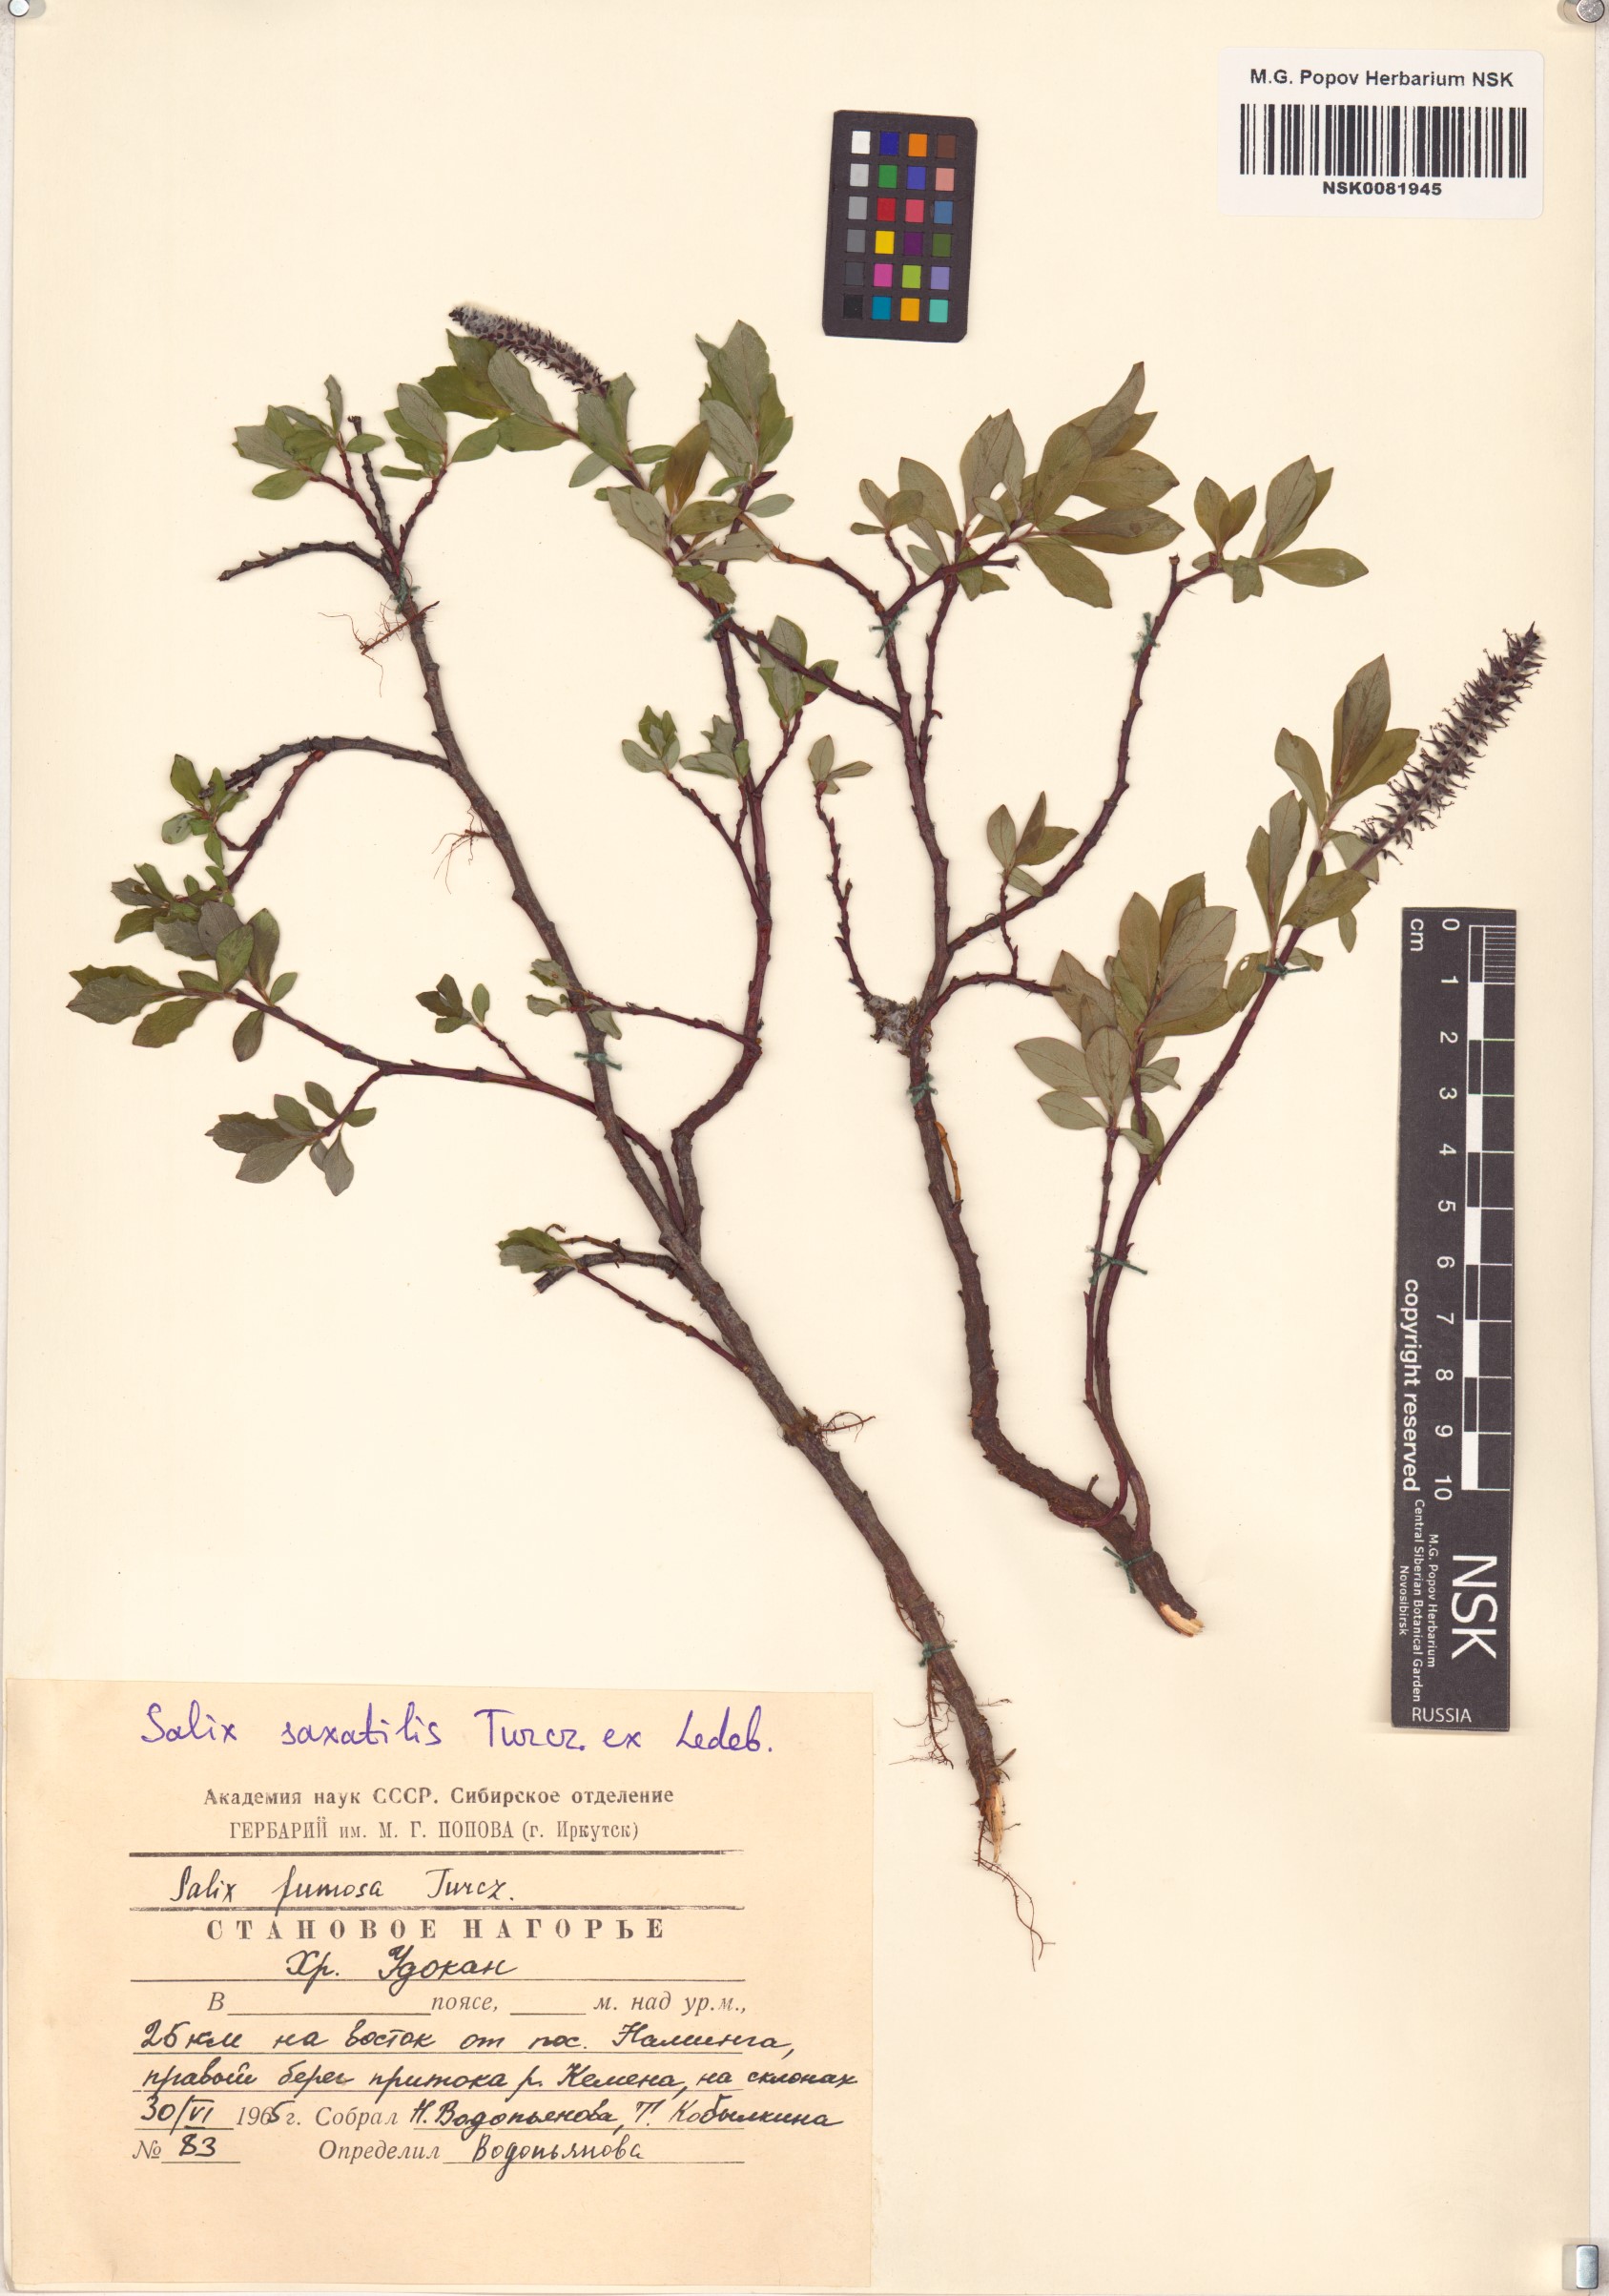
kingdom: Plantae
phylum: Tracheophyta
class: Magnoliopsida
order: Malpighiales
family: Salicaceae
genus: Salix
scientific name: Salix saxatilis
